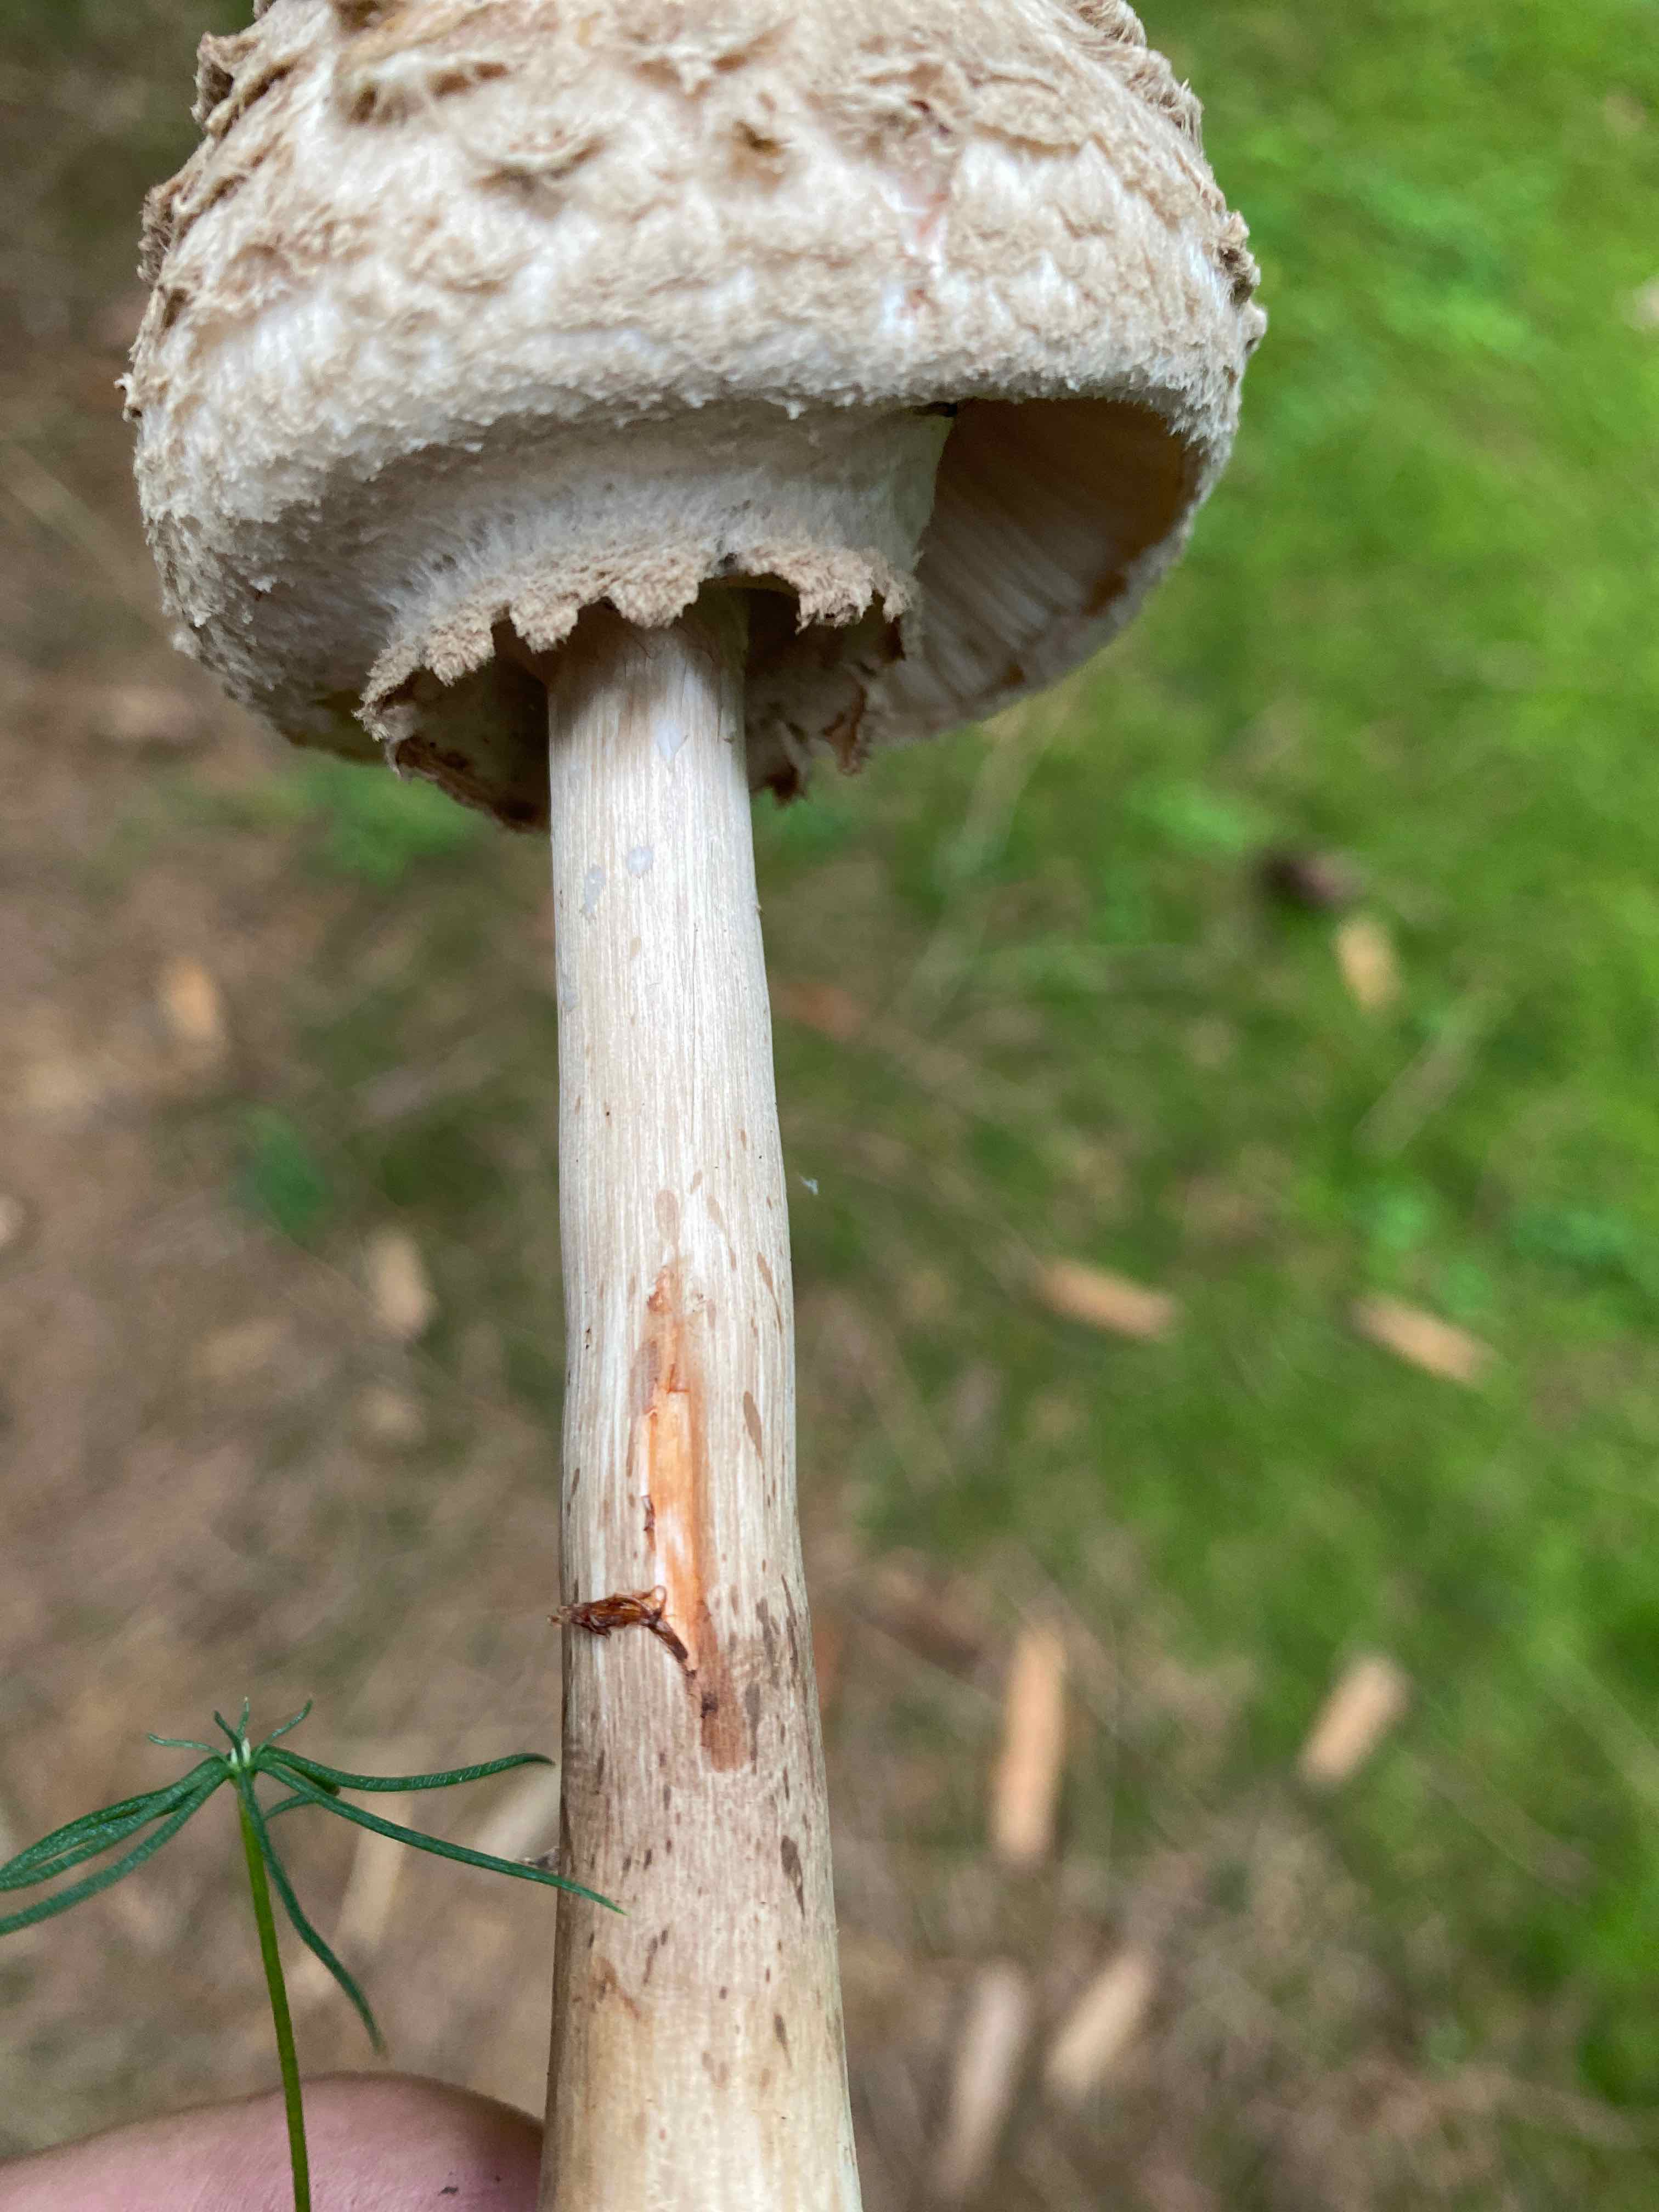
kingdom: Fungi
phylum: Basidiomycota
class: Agaricomycetes
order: Agaricales
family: Agaricaceae
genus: Chlorophyllum
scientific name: Chlorophyllum olivieri
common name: almindelig rabarberhat
